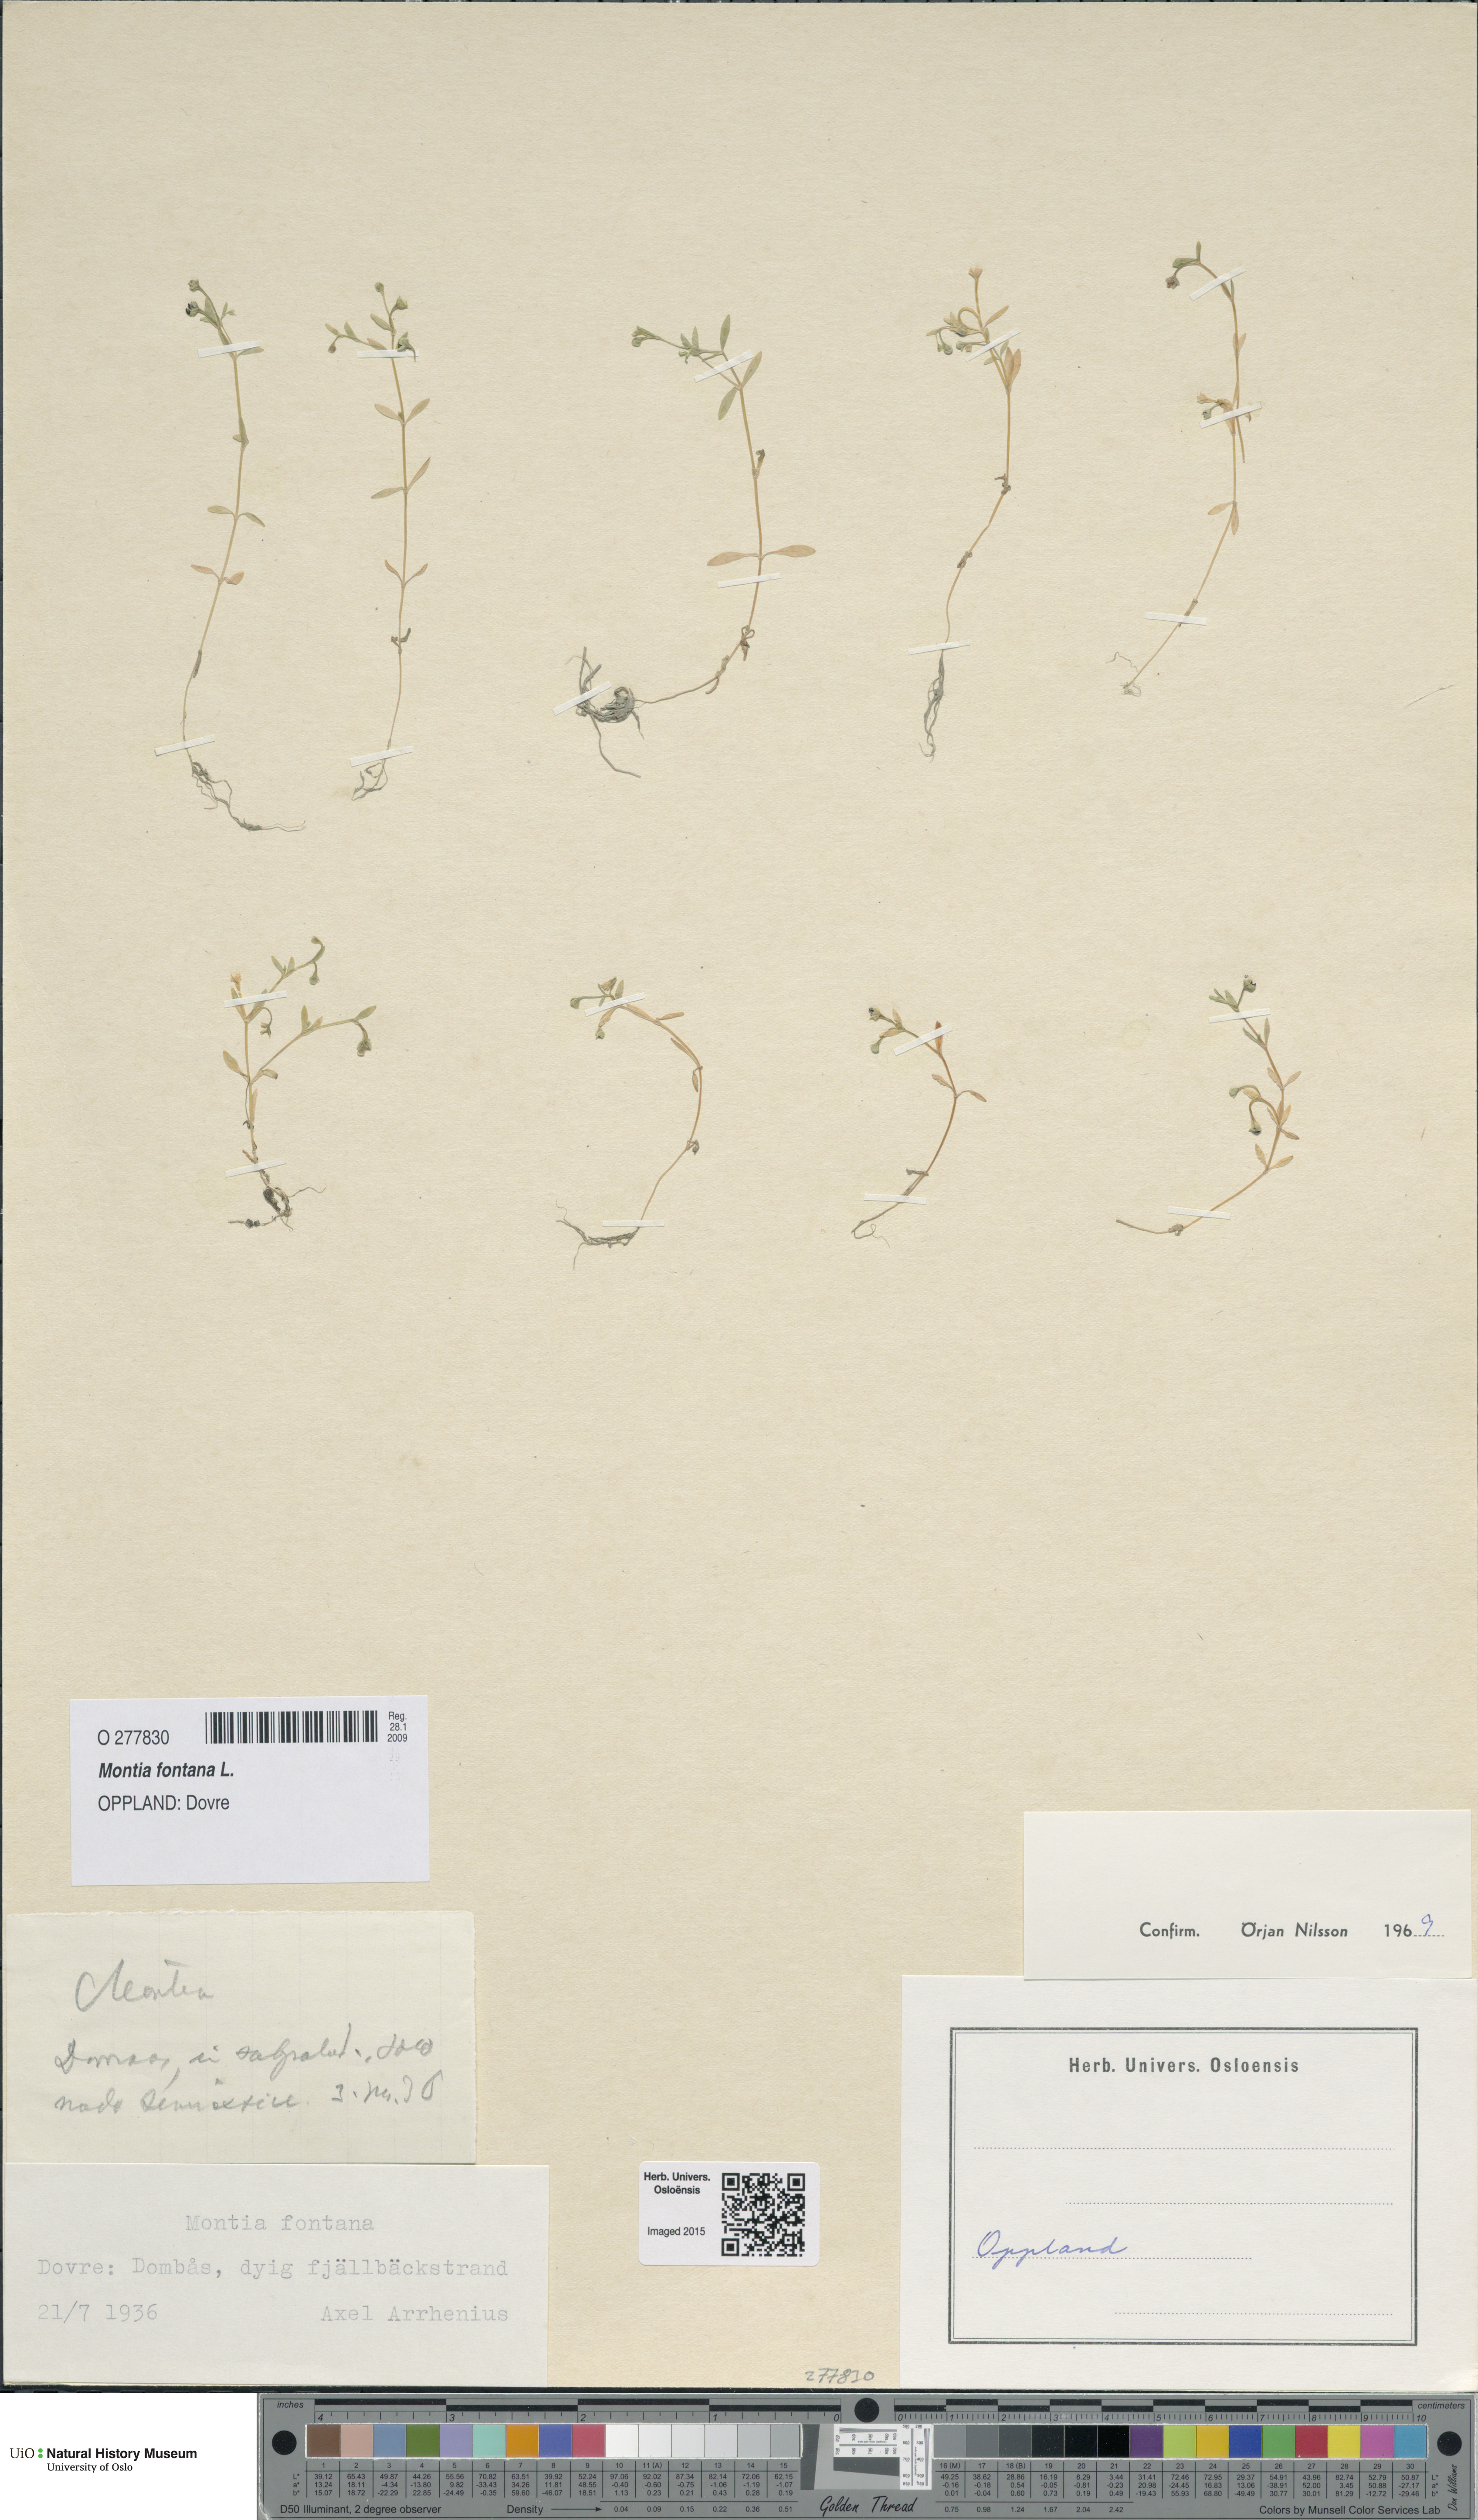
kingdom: Plantae
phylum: Tracheophyta
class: Magnoliopsida
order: Caryophyllales
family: Montiaceae
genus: Montia
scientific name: Montia fontana
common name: Blinks
